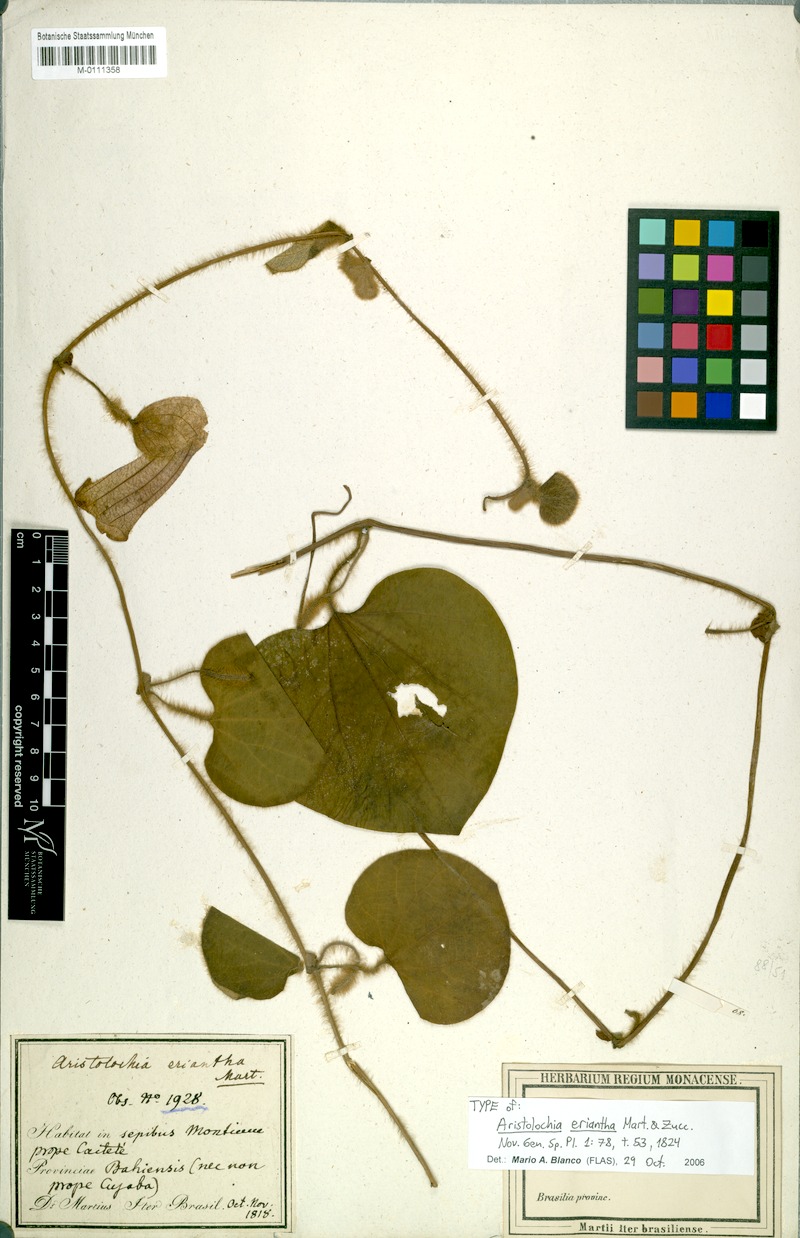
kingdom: Plantae
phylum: Tracheophyta
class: Magnoliopsida
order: Piperales
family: Aristolochiaceae
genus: Aristolochia
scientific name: Aristolochia eriantha
